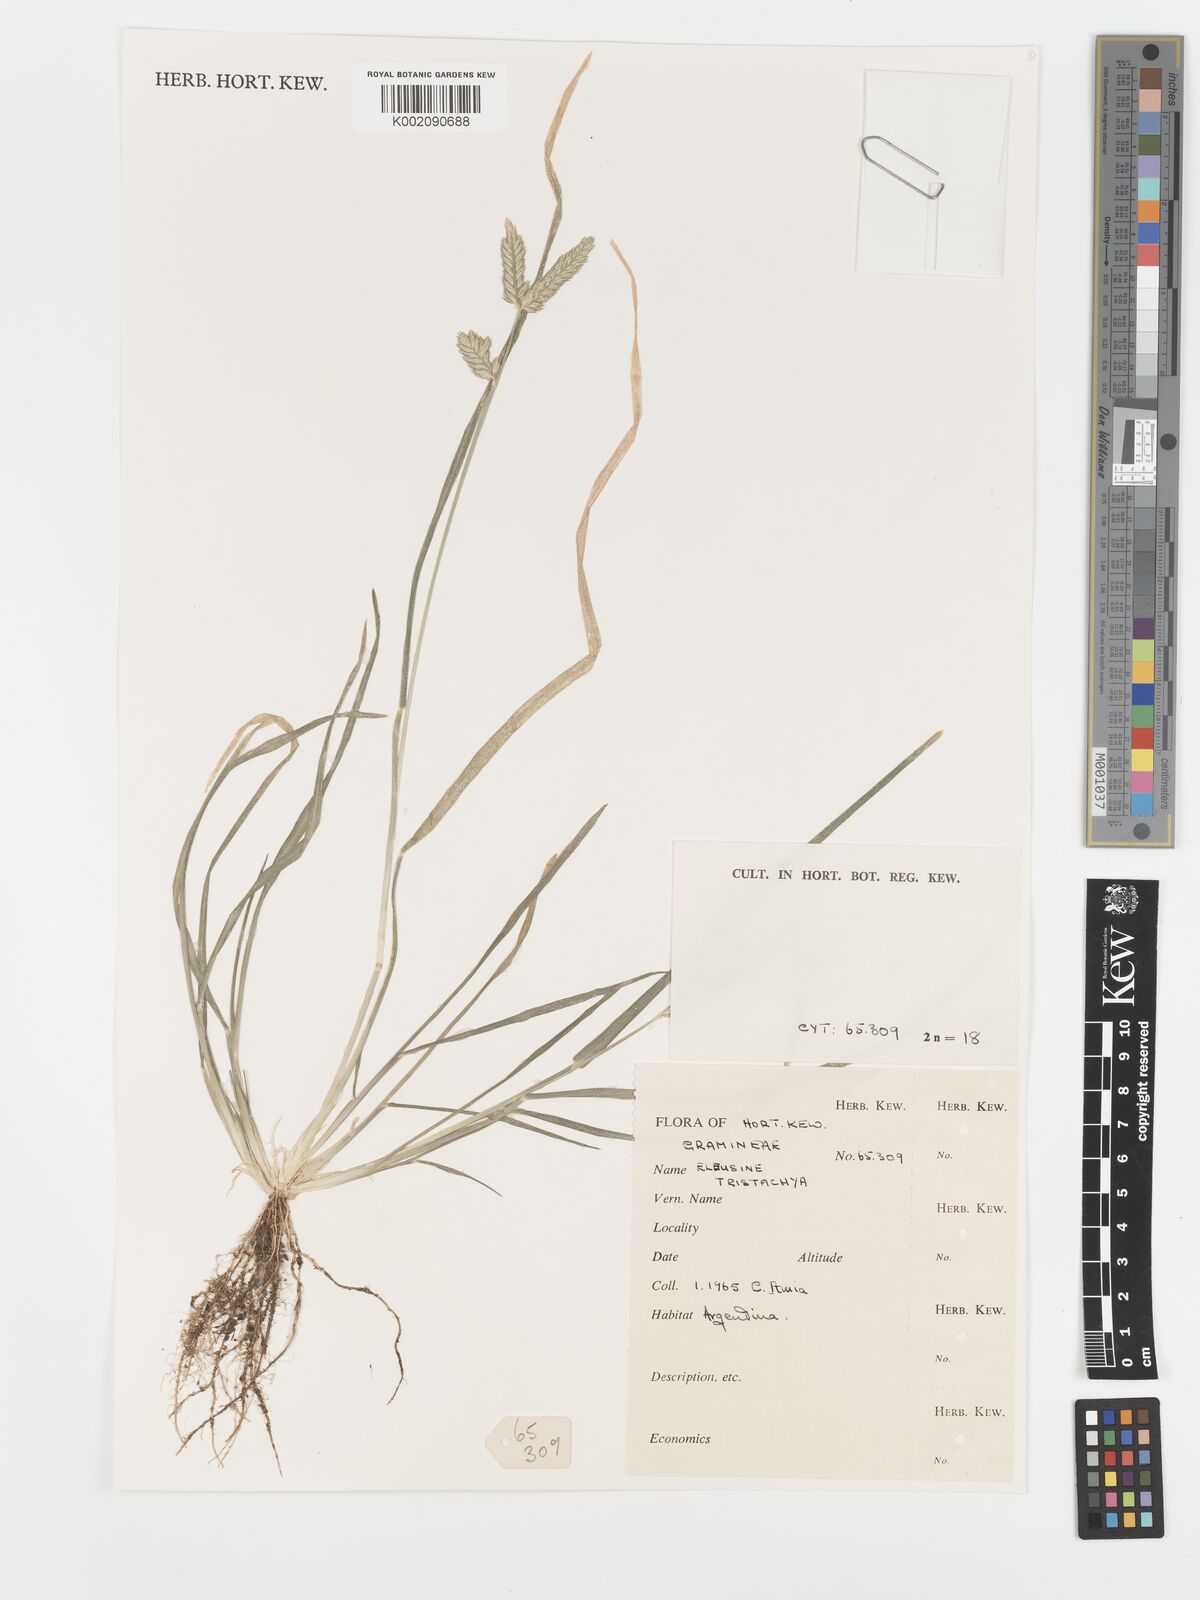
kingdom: Plantae
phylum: Tracheophyta
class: Liliopsida
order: Poales
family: Poaceae
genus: Eleusine
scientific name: Eleusine tristachya
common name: American yard-grass
